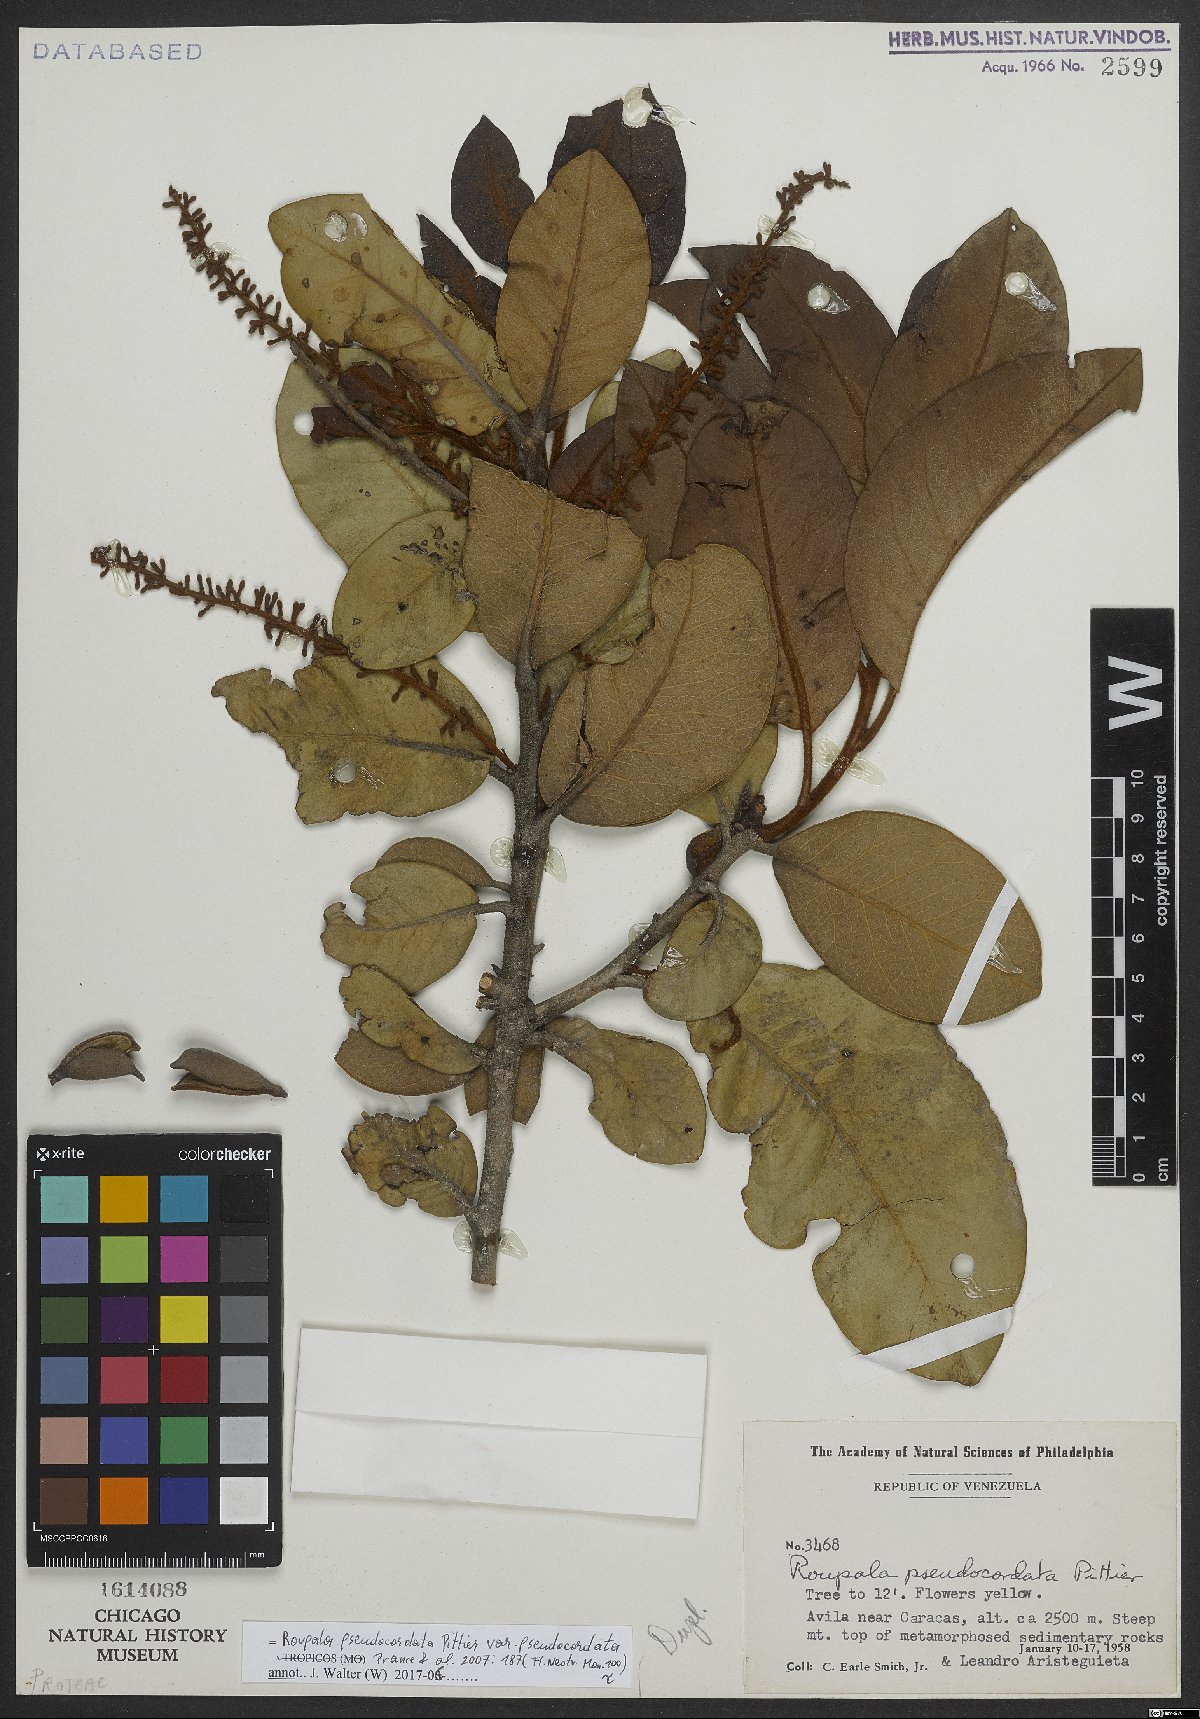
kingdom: Plantae
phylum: Tracheophyta
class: Magnoliopsida
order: Proteales
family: Proteaceae
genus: Roupala
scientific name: Roupala pseudocordata
